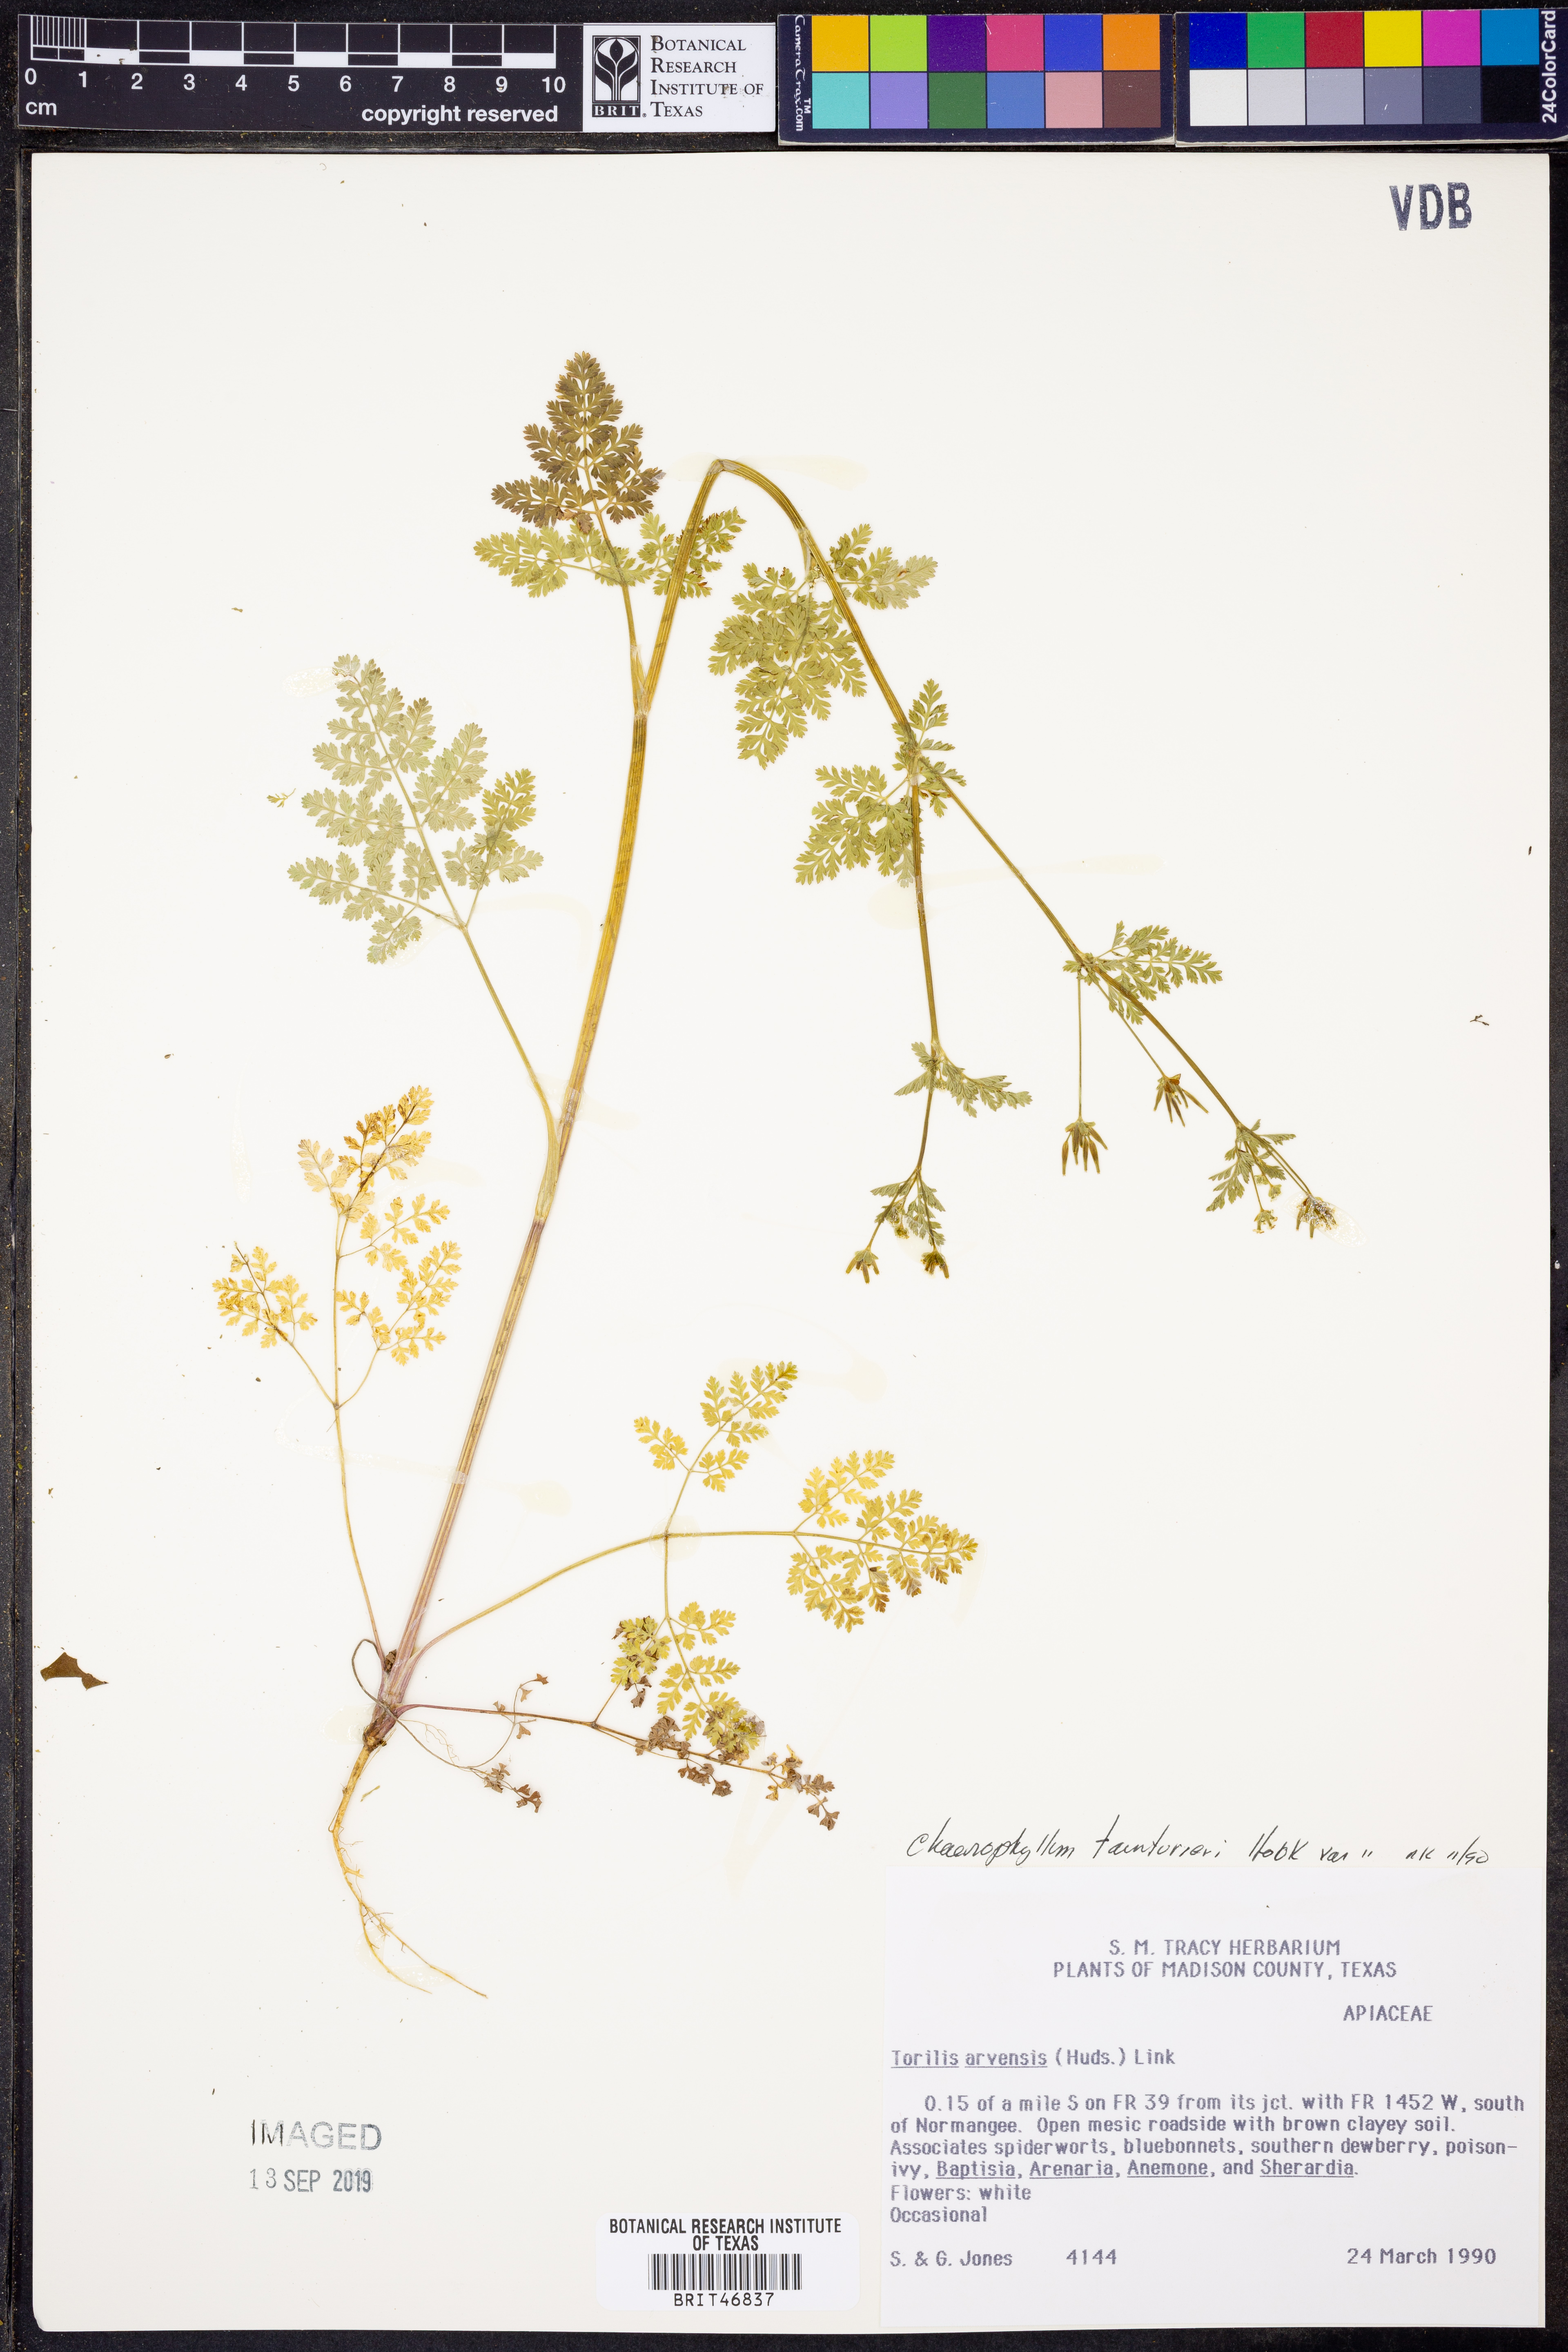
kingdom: Plantae
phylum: Tracheophyta
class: Magnoliopsida
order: Apiales
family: Apiaceae
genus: Chaerophyllum
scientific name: Chaerophyllum tainturieri
